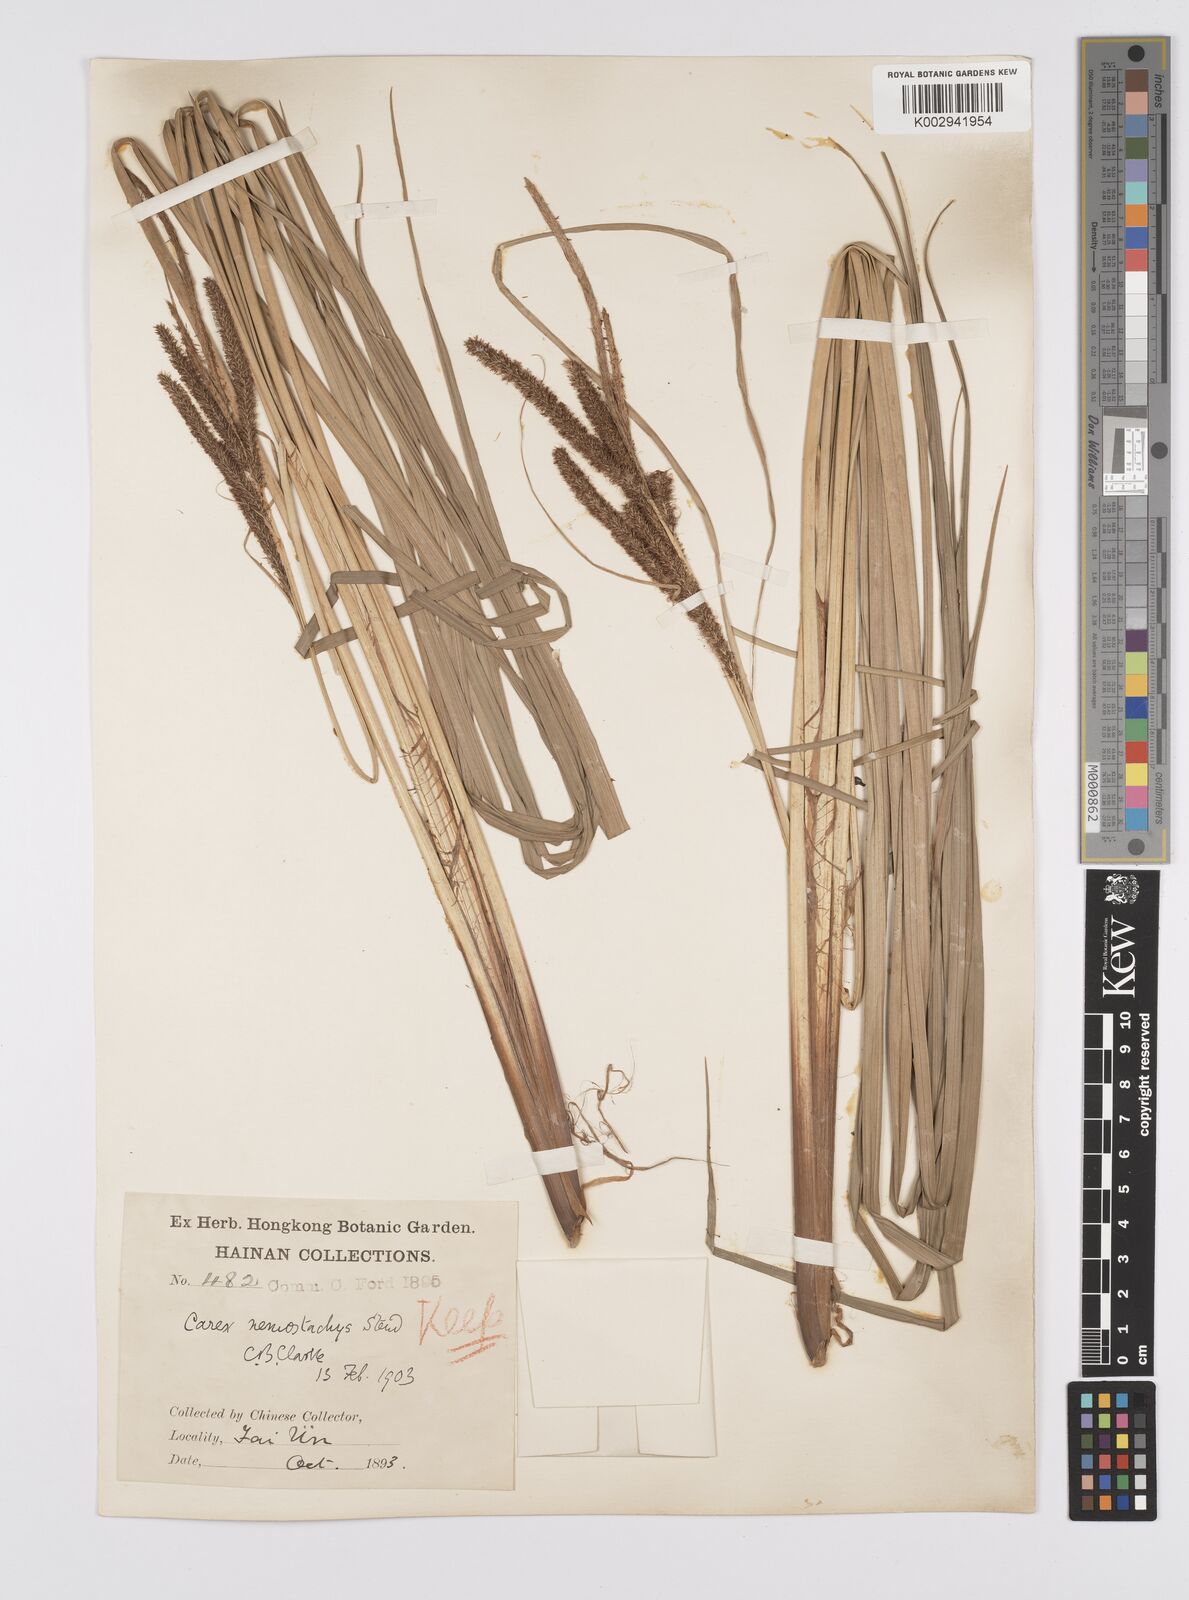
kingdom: Plantae
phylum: Tracheophyta
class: Liliopsida
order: Poales
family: Cyperaceae
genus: Carex
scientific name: Carex nemostachys
